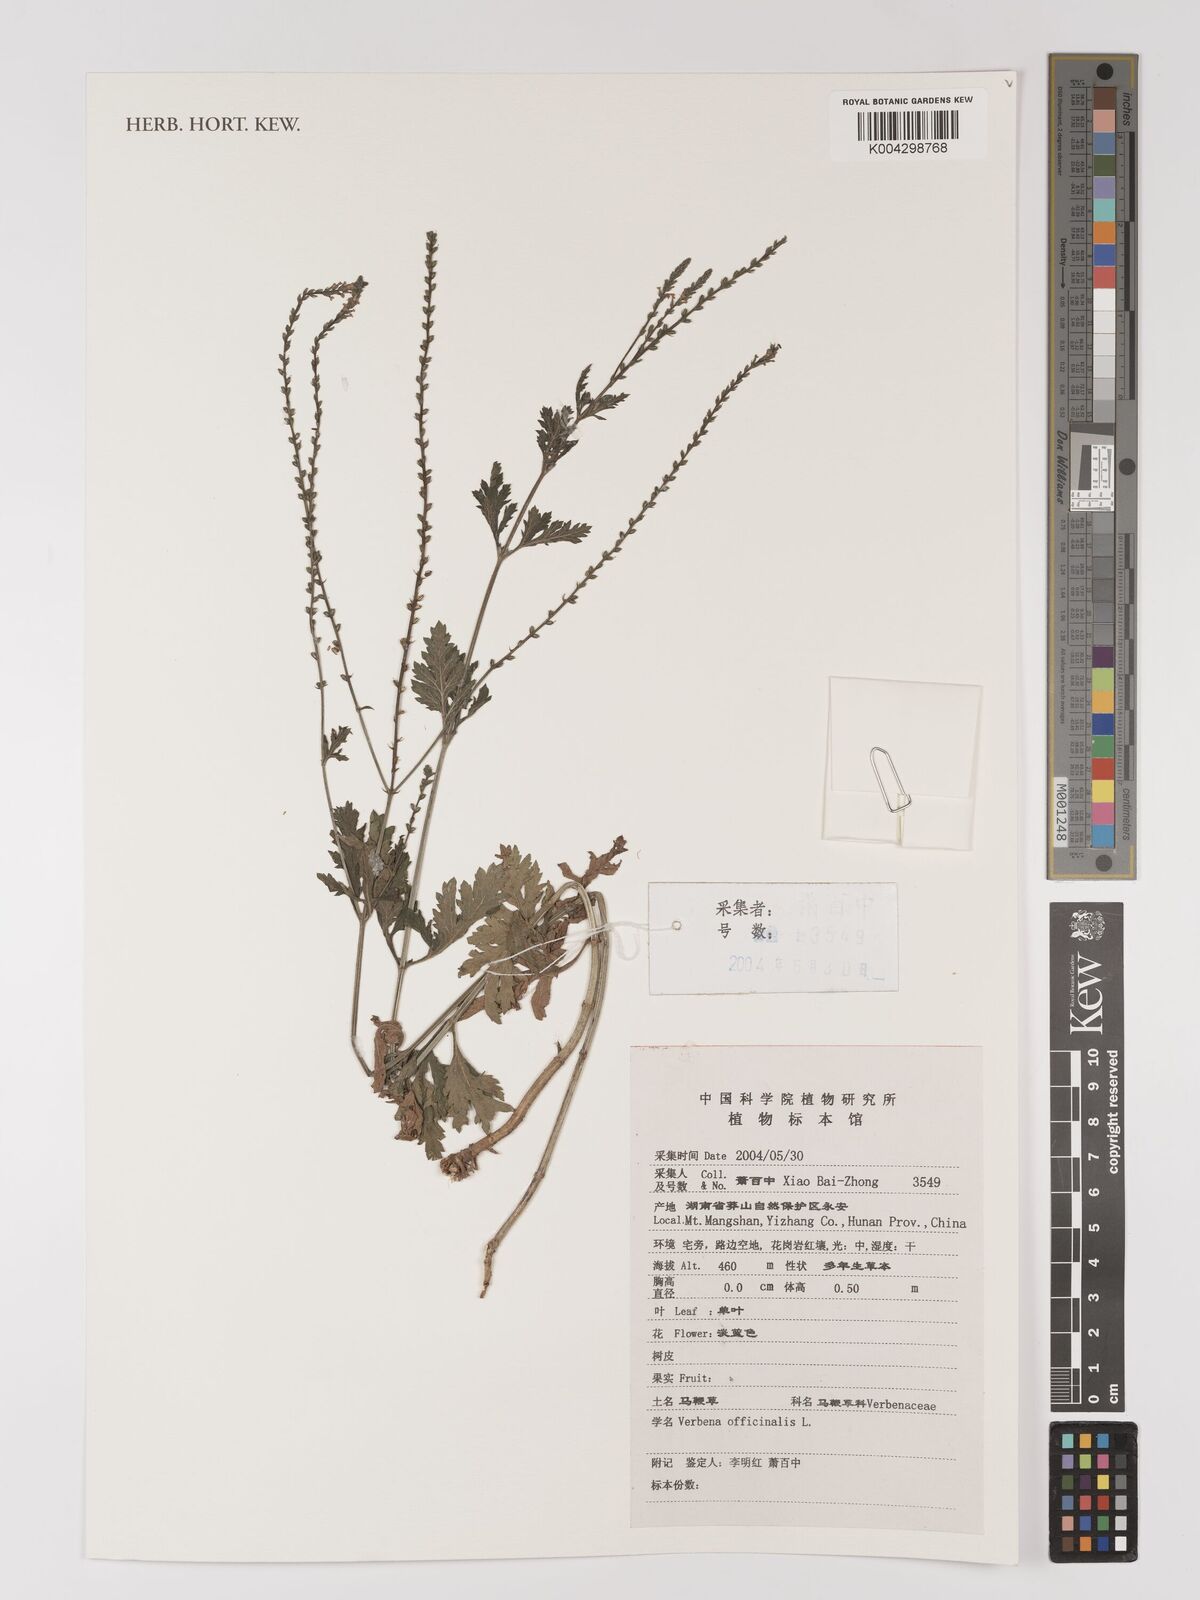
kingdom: Plantae
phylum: Tracheophyta
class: Magnoliopsida
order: Lamiales
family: Verbenaceae
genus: Verbena
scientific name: Verbena officinalis
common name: Vervain
